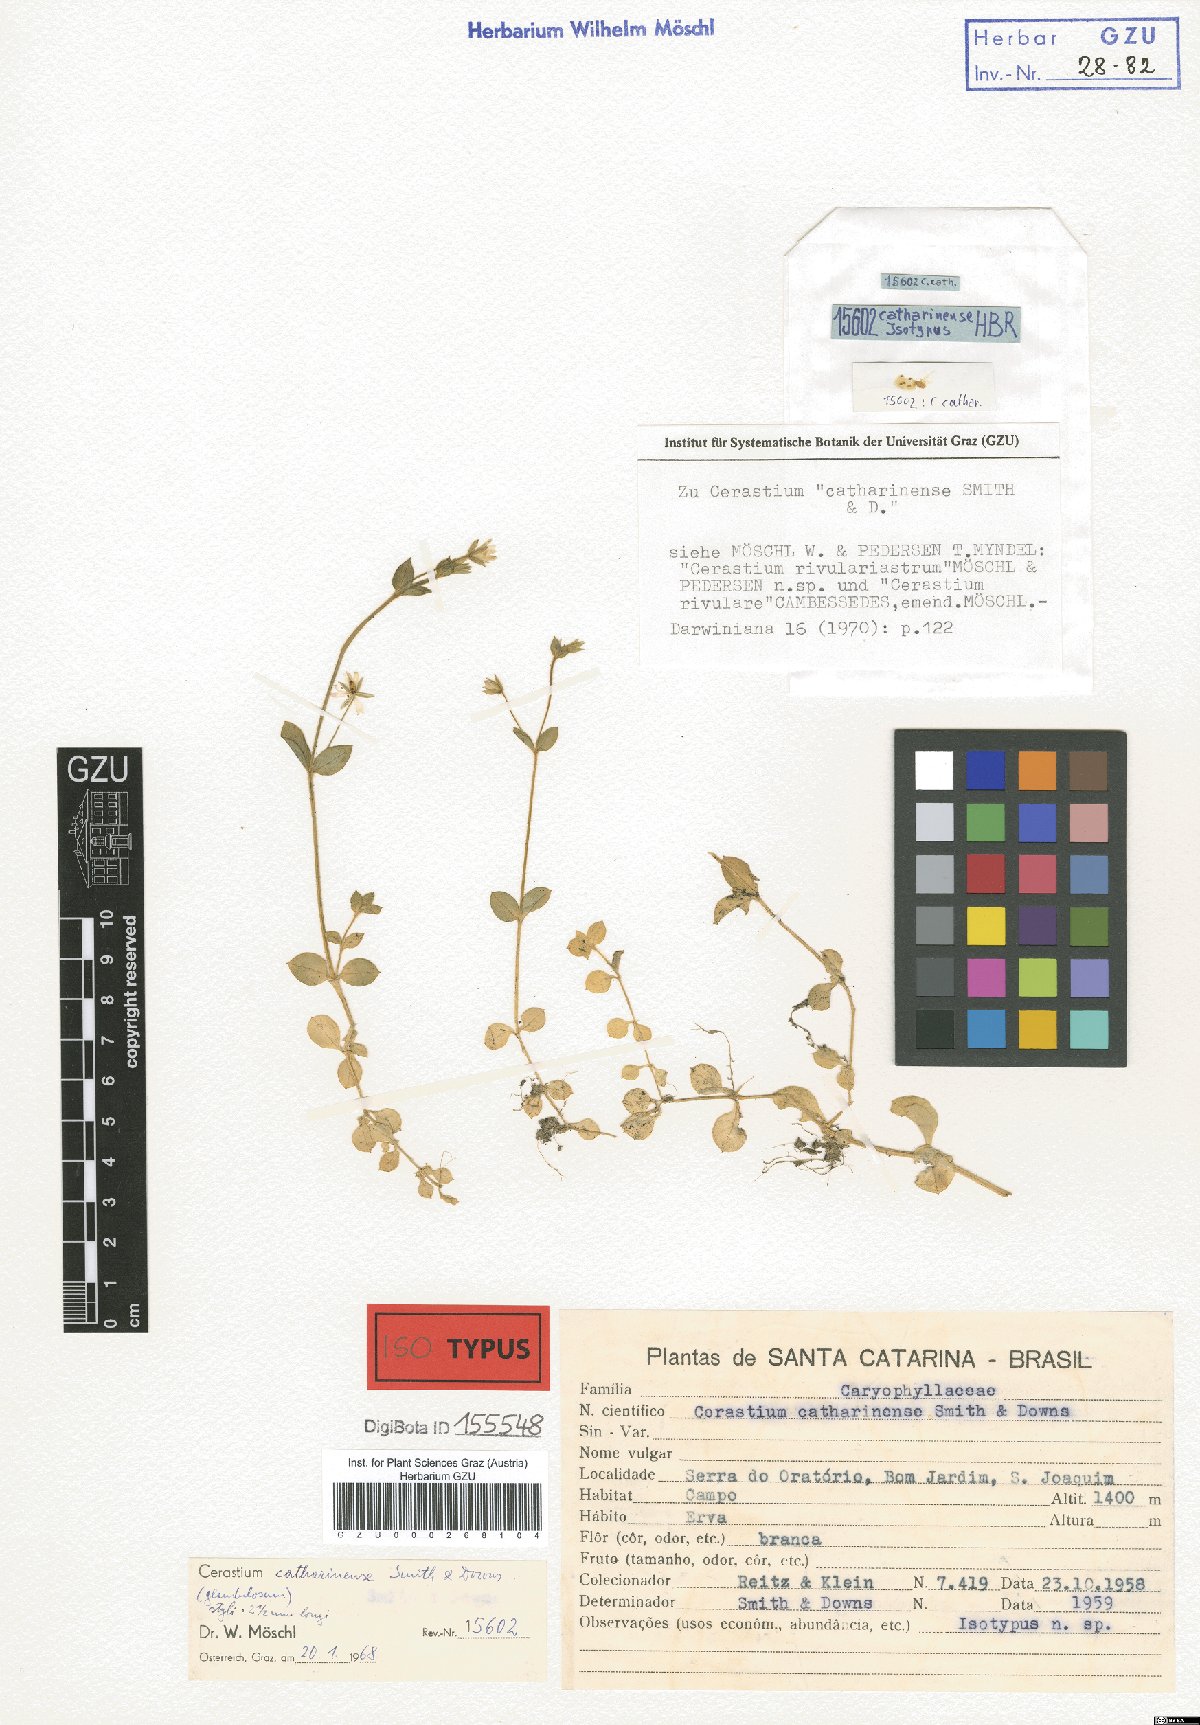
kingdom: Plantae
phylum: Tracheophyta
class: Magnoliopsida
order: Caryophyllales
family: Caryophyllaceae
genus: Cerastium
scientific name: Cerastium rivulare
